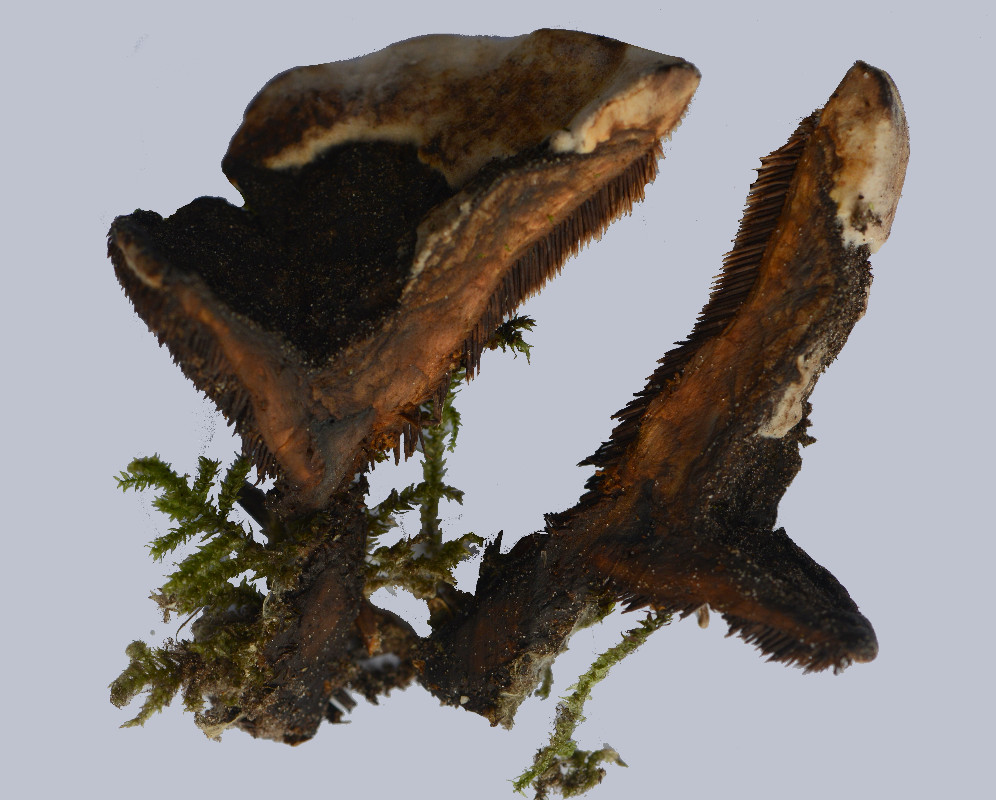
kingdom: Fungi
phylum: Basidiomycota
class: Agaricomycetes
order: Thelephorales
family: Bankeraceae
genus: Hydnellum
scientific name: Hydnellum aurantiacum
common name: orange korkpigsvamp
